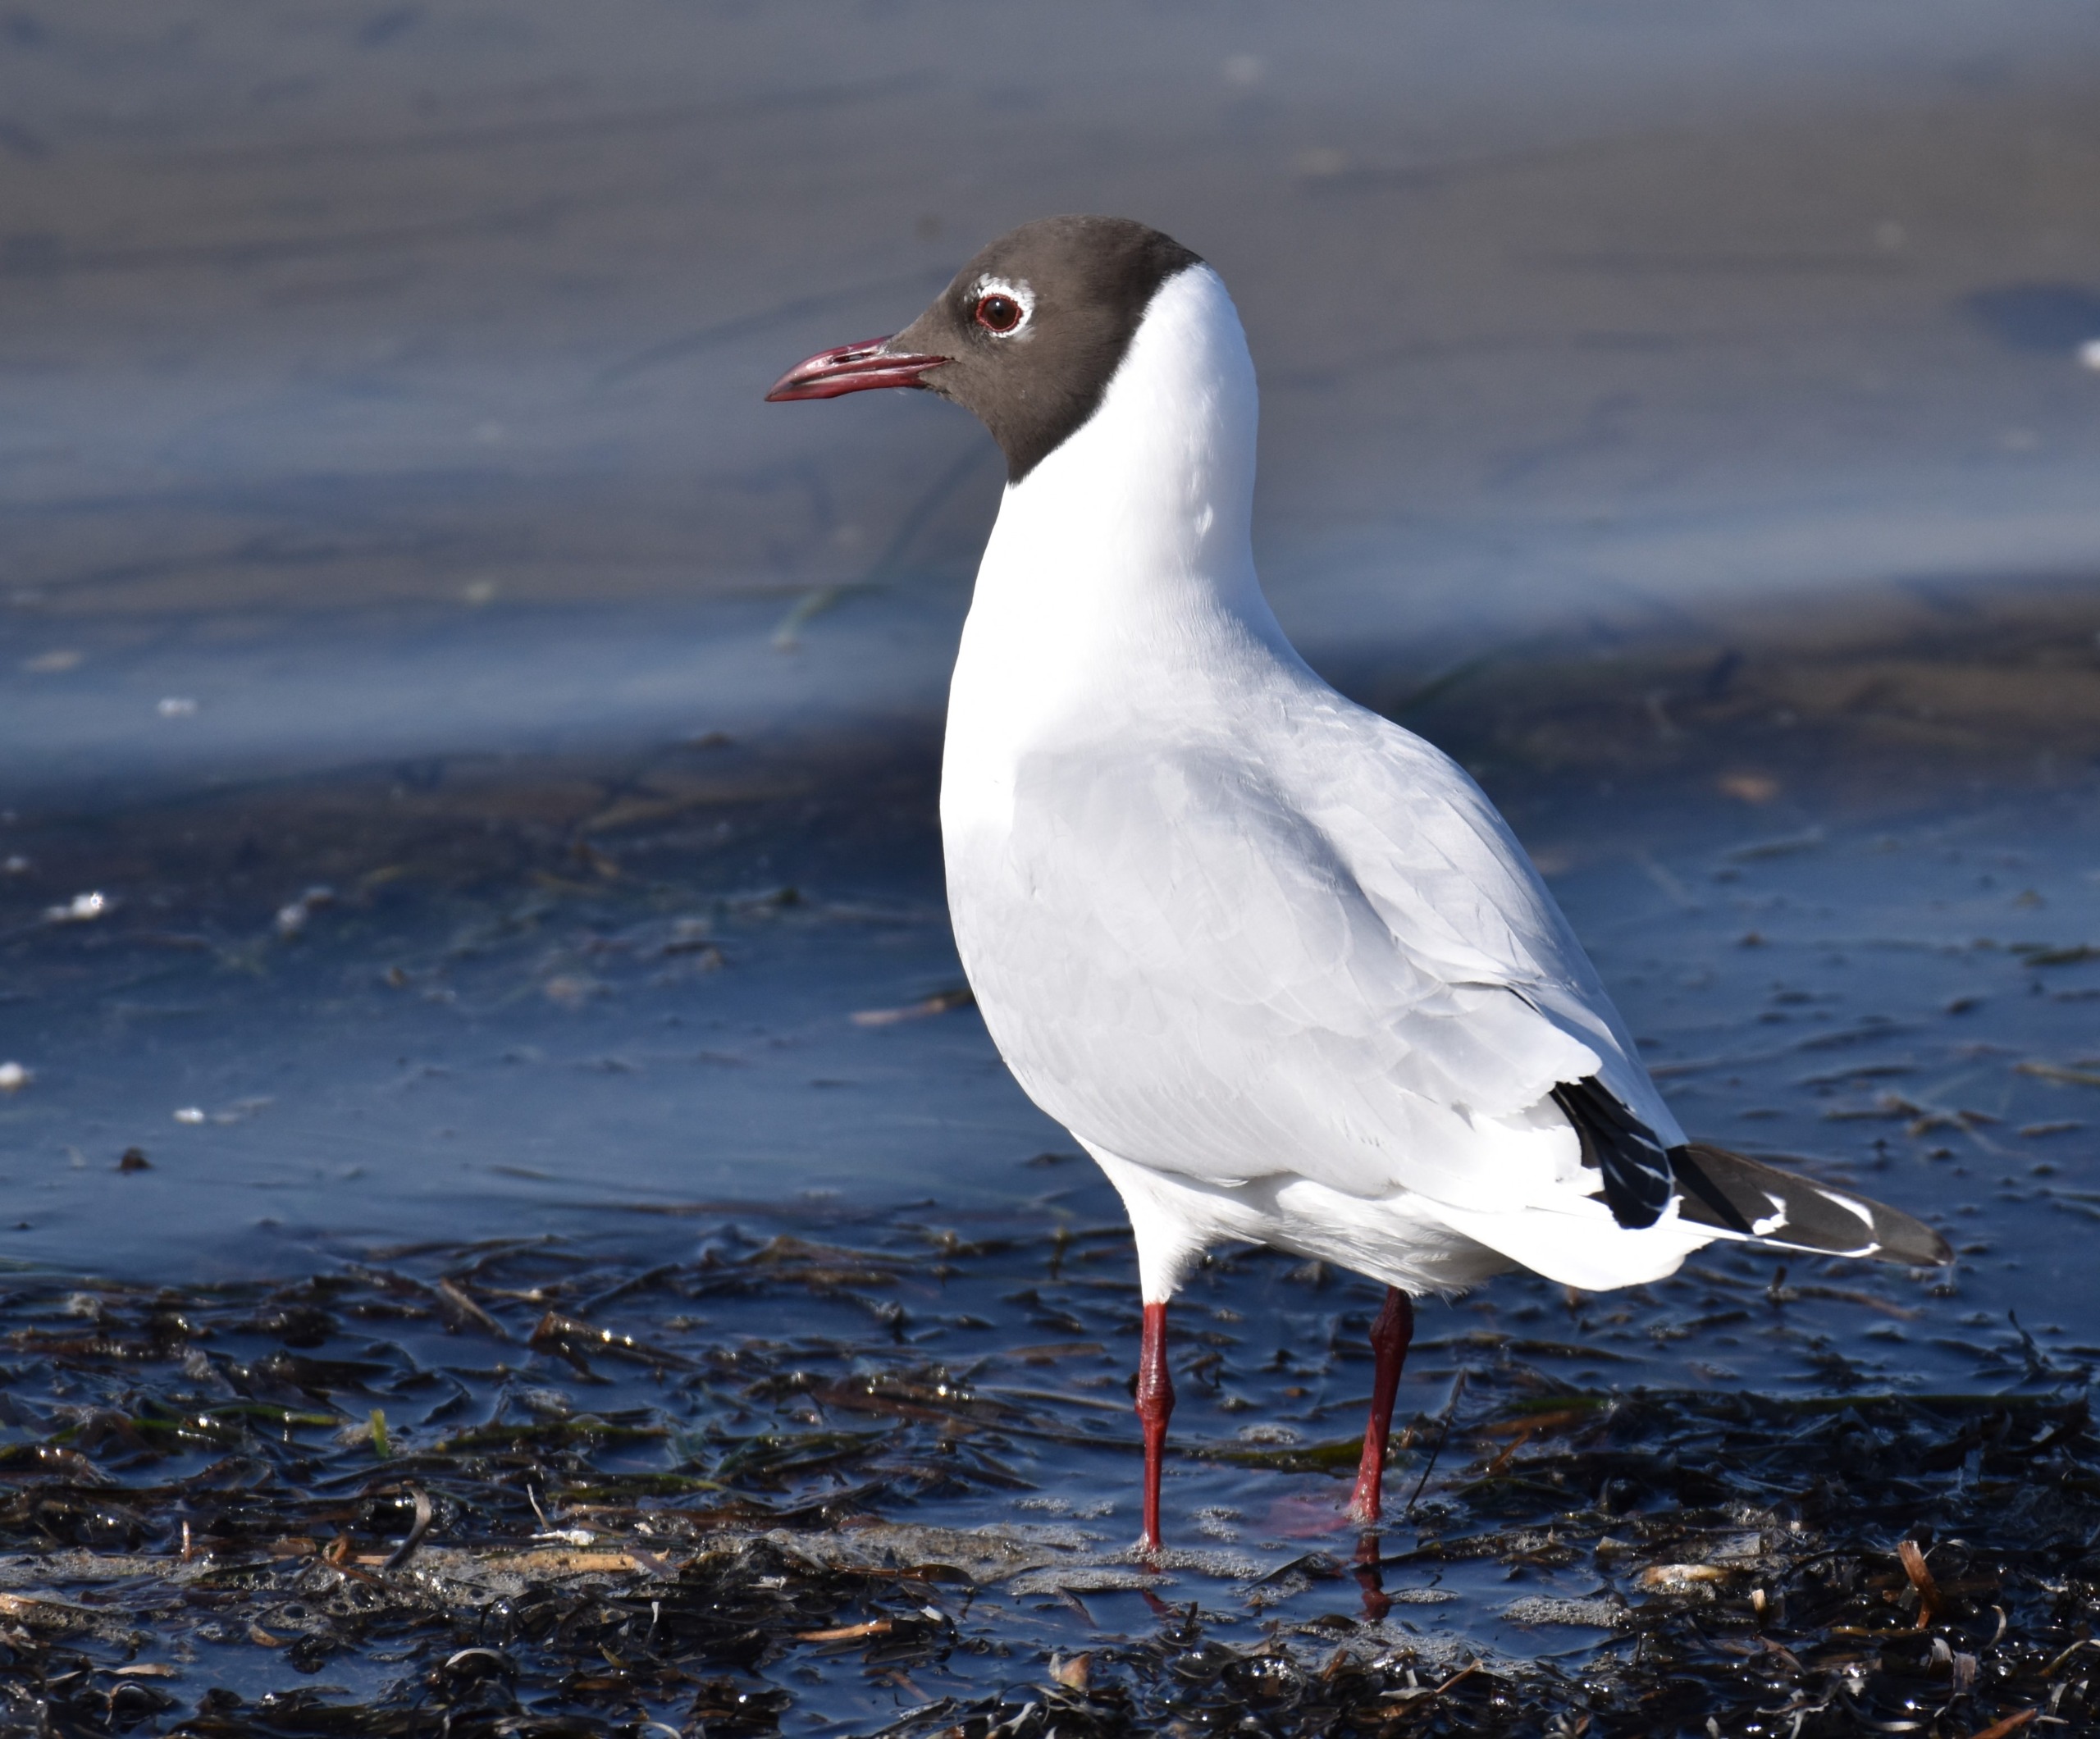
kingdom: Animalia
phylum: Chordata
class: Aves
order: Charadriiformes
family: Laridae
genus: Chroicocephalus
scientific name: Chroicocephalus ridibundus
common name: Hættemåge
